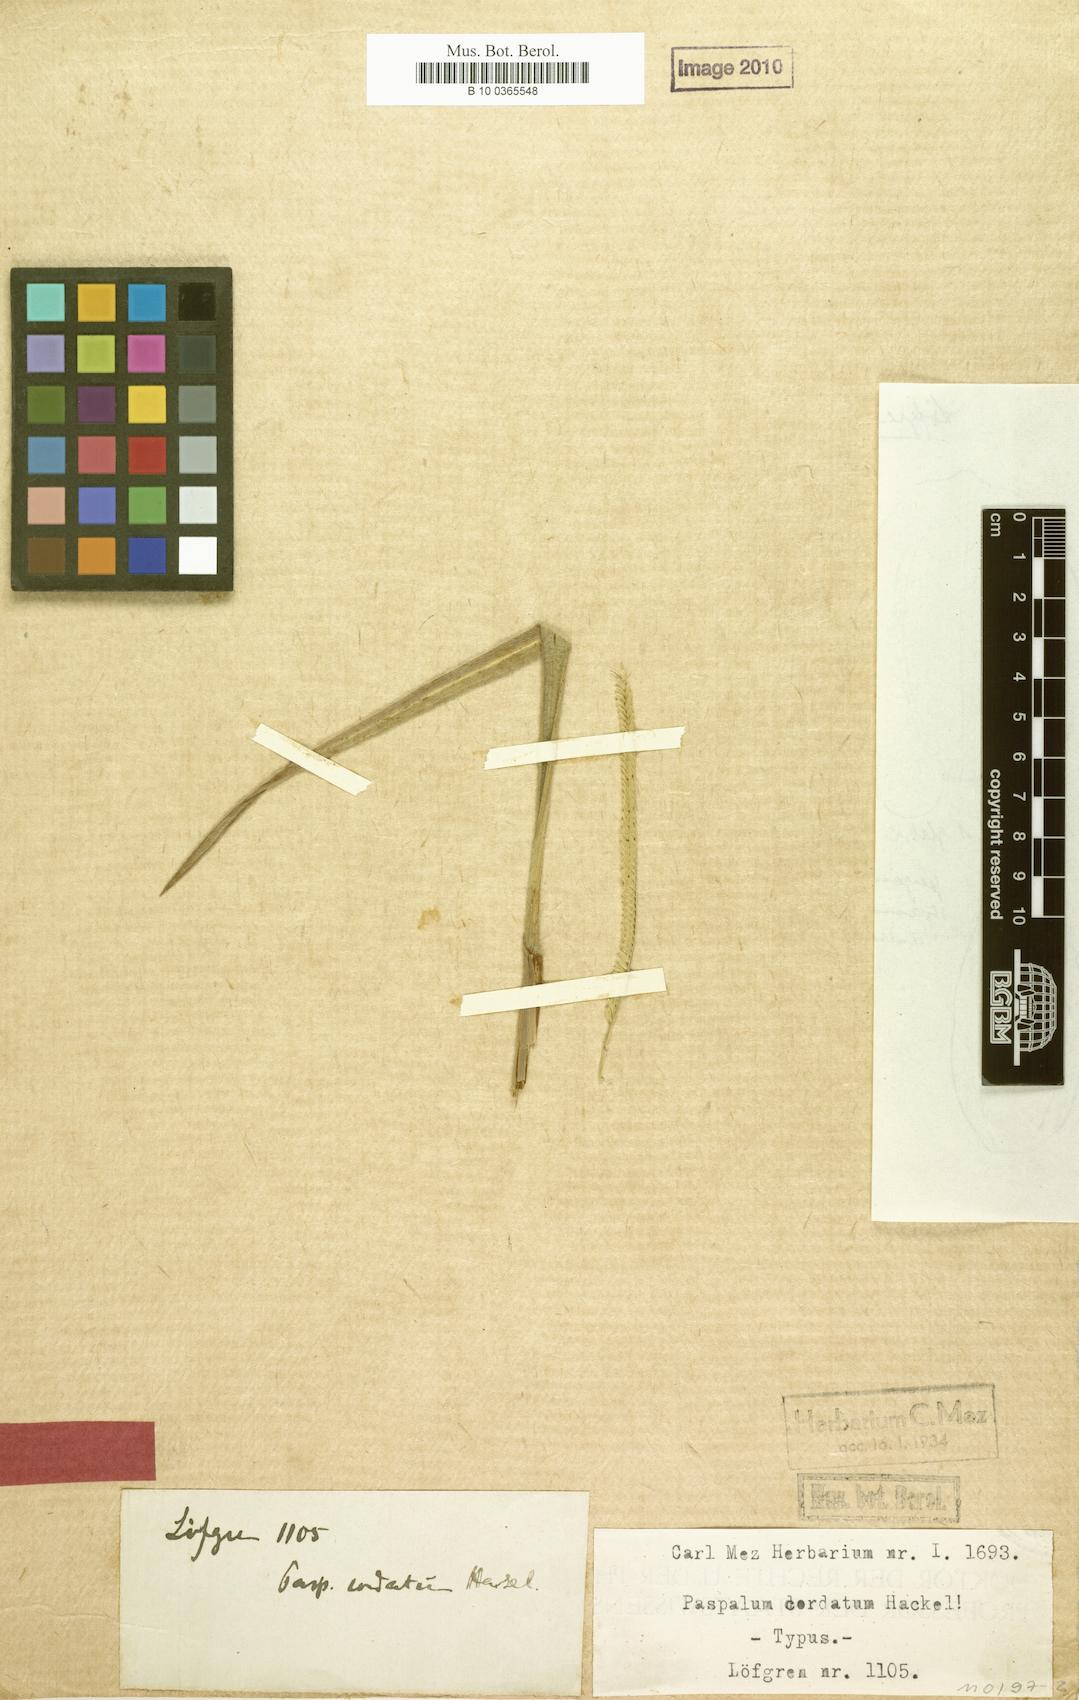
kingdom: Plantae
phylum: Tracheophyta
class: Liliopsida
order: Poales
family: Poaceae
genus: Paspalum
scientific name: Paspalum cordatum
